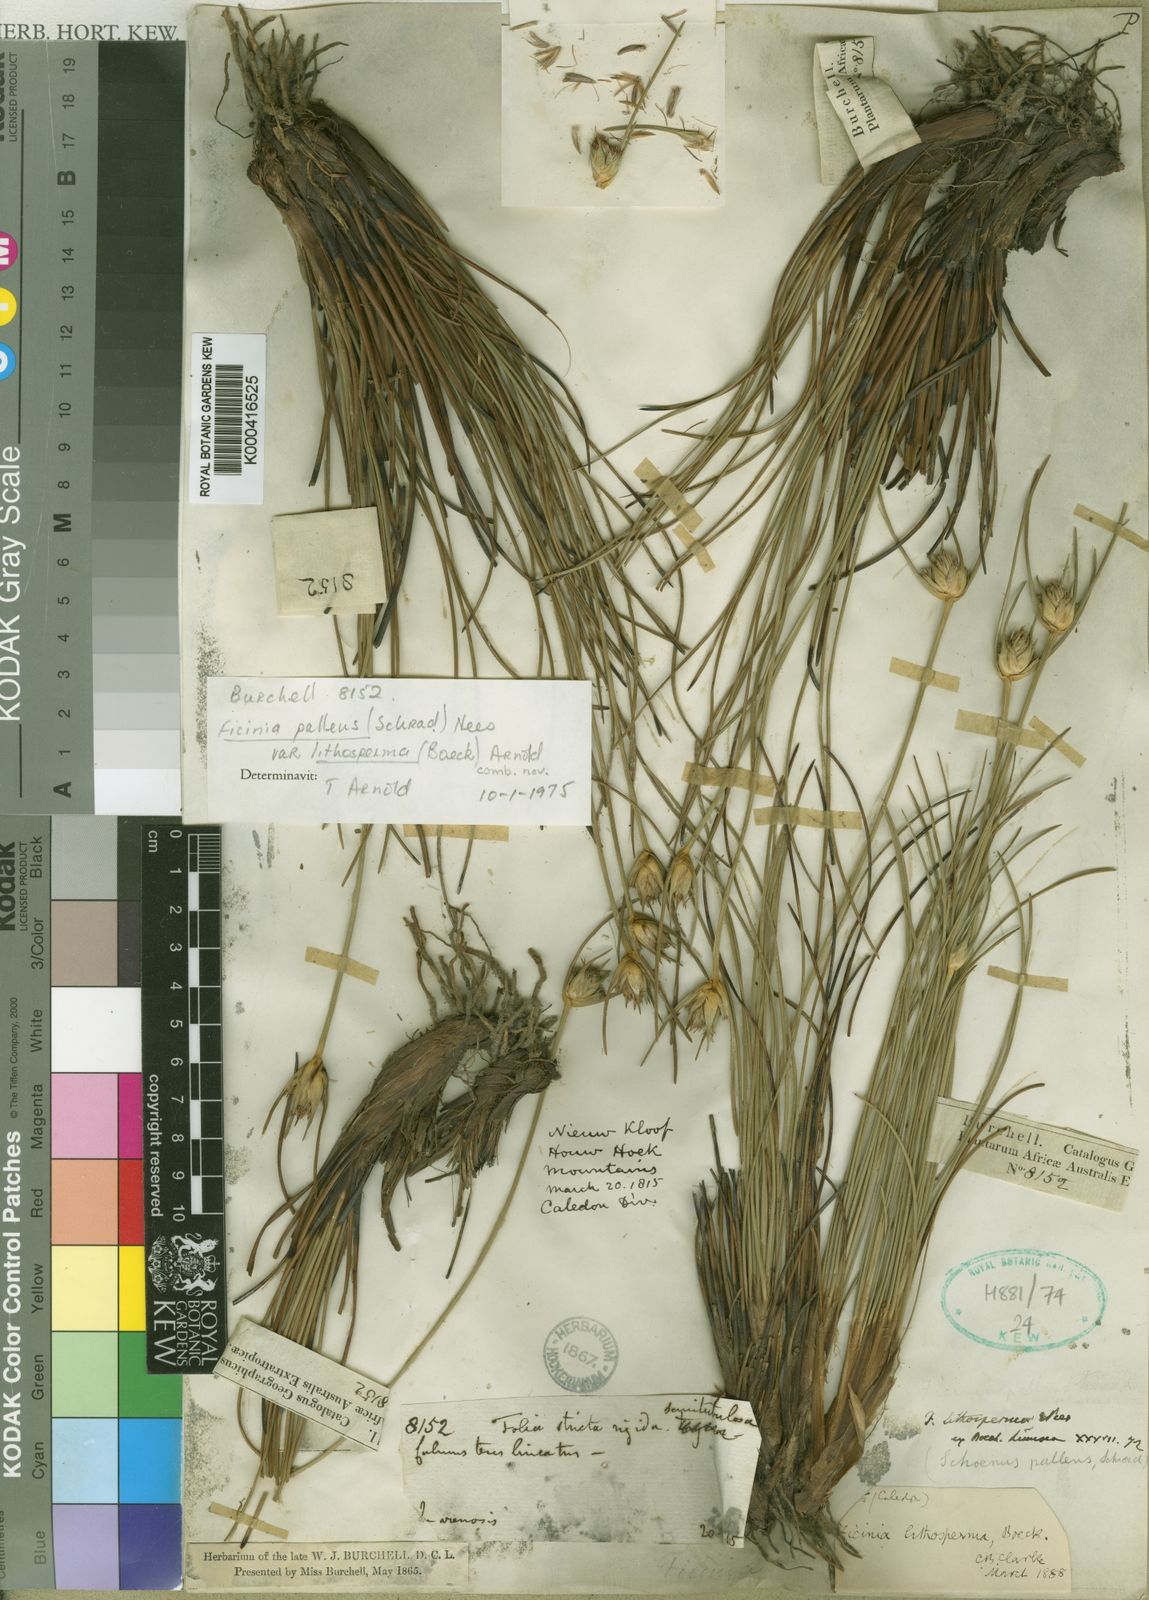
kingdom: Plantae
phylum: Tracheophyta
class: Liliopsida
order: Poales
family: Cyperaceae
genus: Ficinia
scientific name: Ficinia pallens
